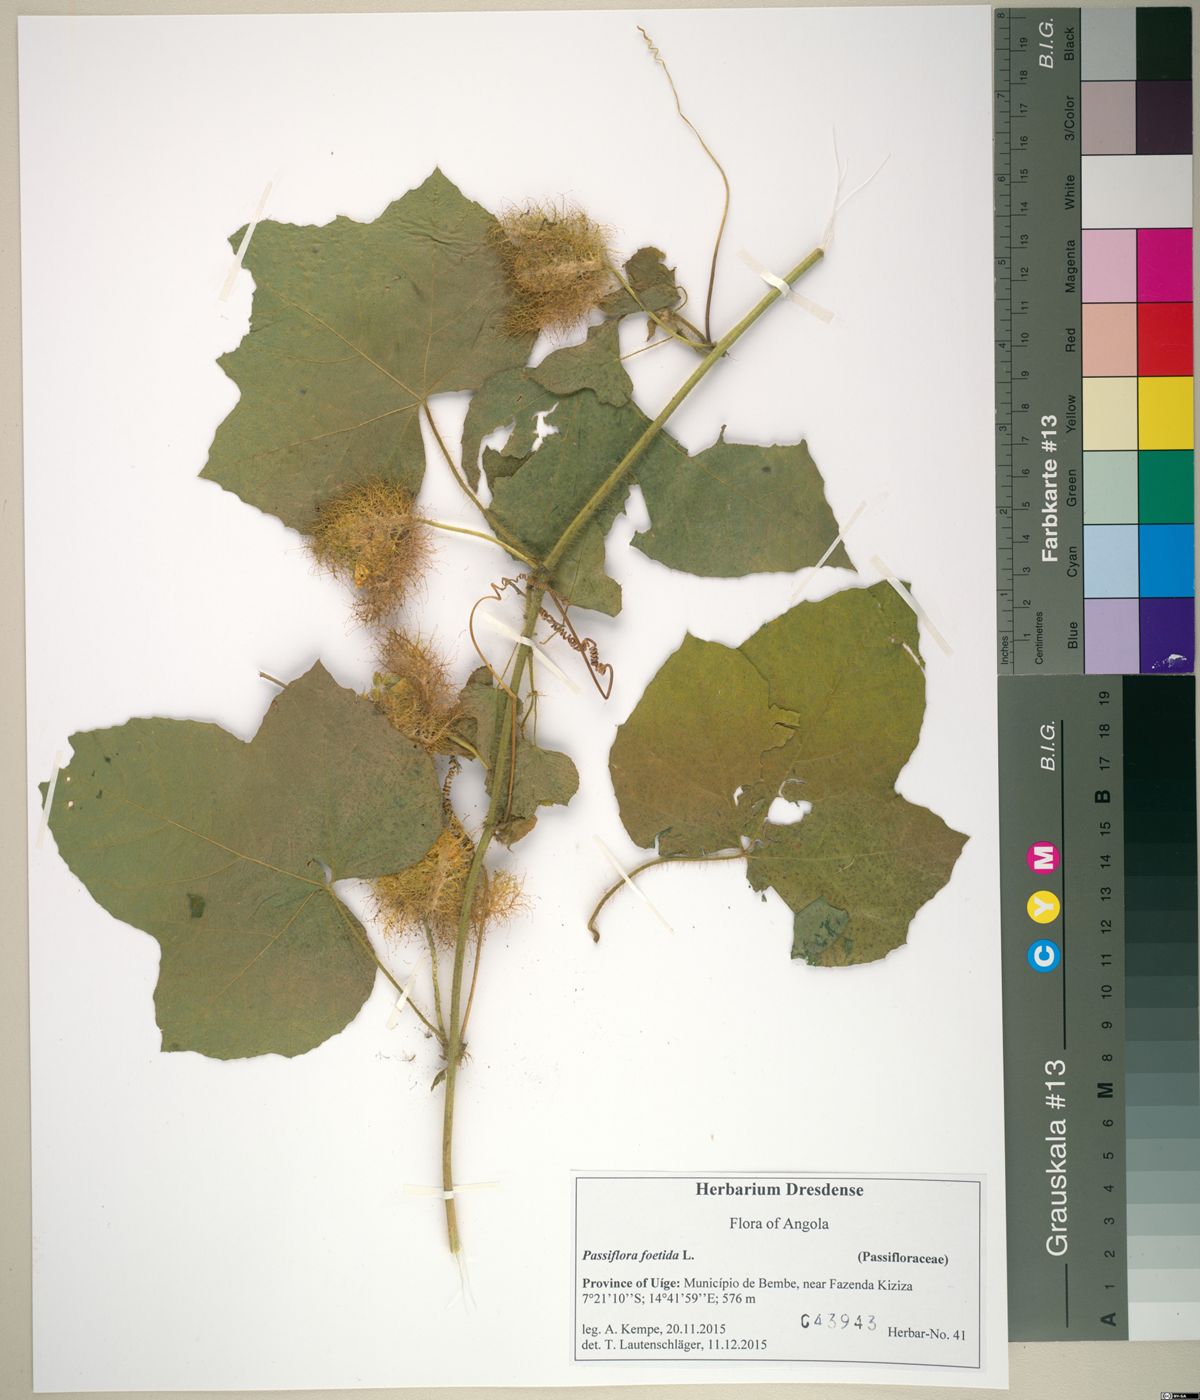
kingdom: Plantae
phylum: Tracheophyta
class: Magnoliopsida
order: Malpighiales
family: Passifloraceae
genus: Passiflora
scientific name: Passiflora foetida
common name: Fetid passionflower
